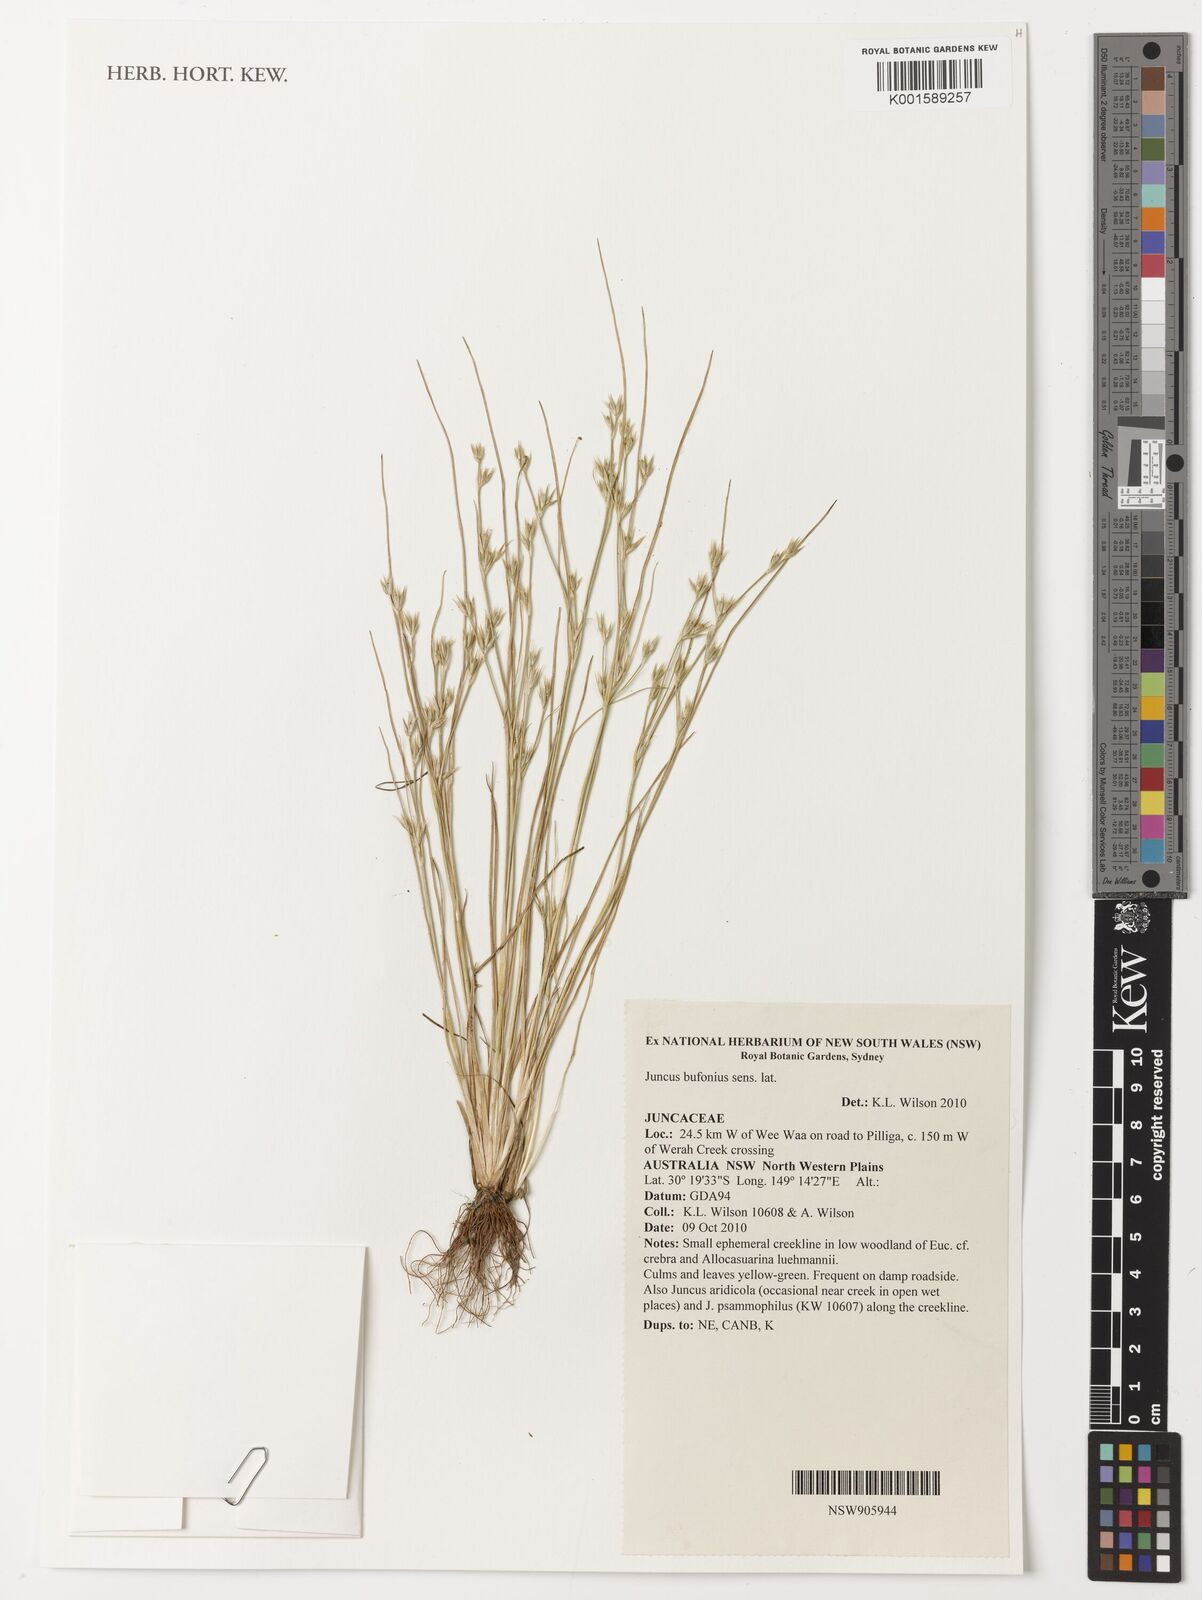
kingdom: Plantae
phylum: Tracheophyta
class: Liliopsida
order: Poales
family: Juncaceae
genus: Juncus
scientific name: Juncus bufonius
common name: Toad rush
